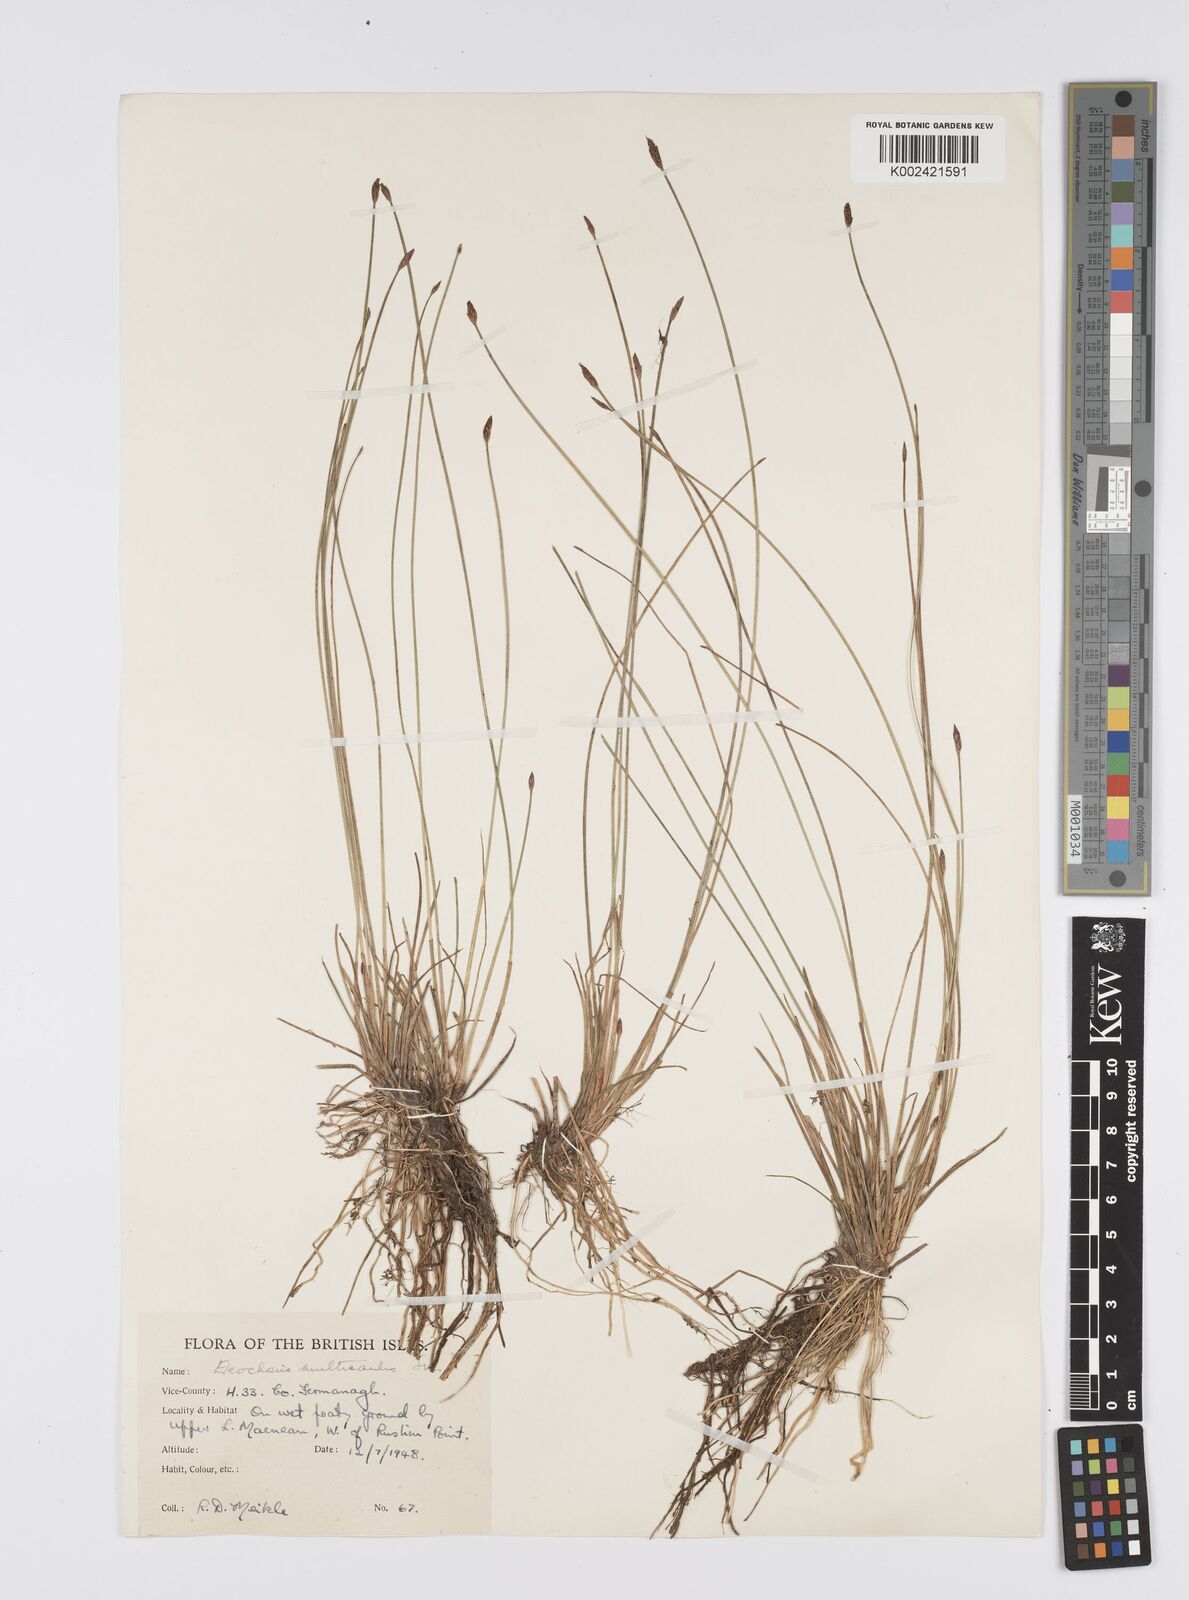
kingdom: Plantae
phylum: Tracheophyta
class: Liliopsida
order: Poales
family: Cyperaceae
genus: Eleocharis
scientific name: Eleocharis multicaulis
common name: Many-stalked spike-rush
